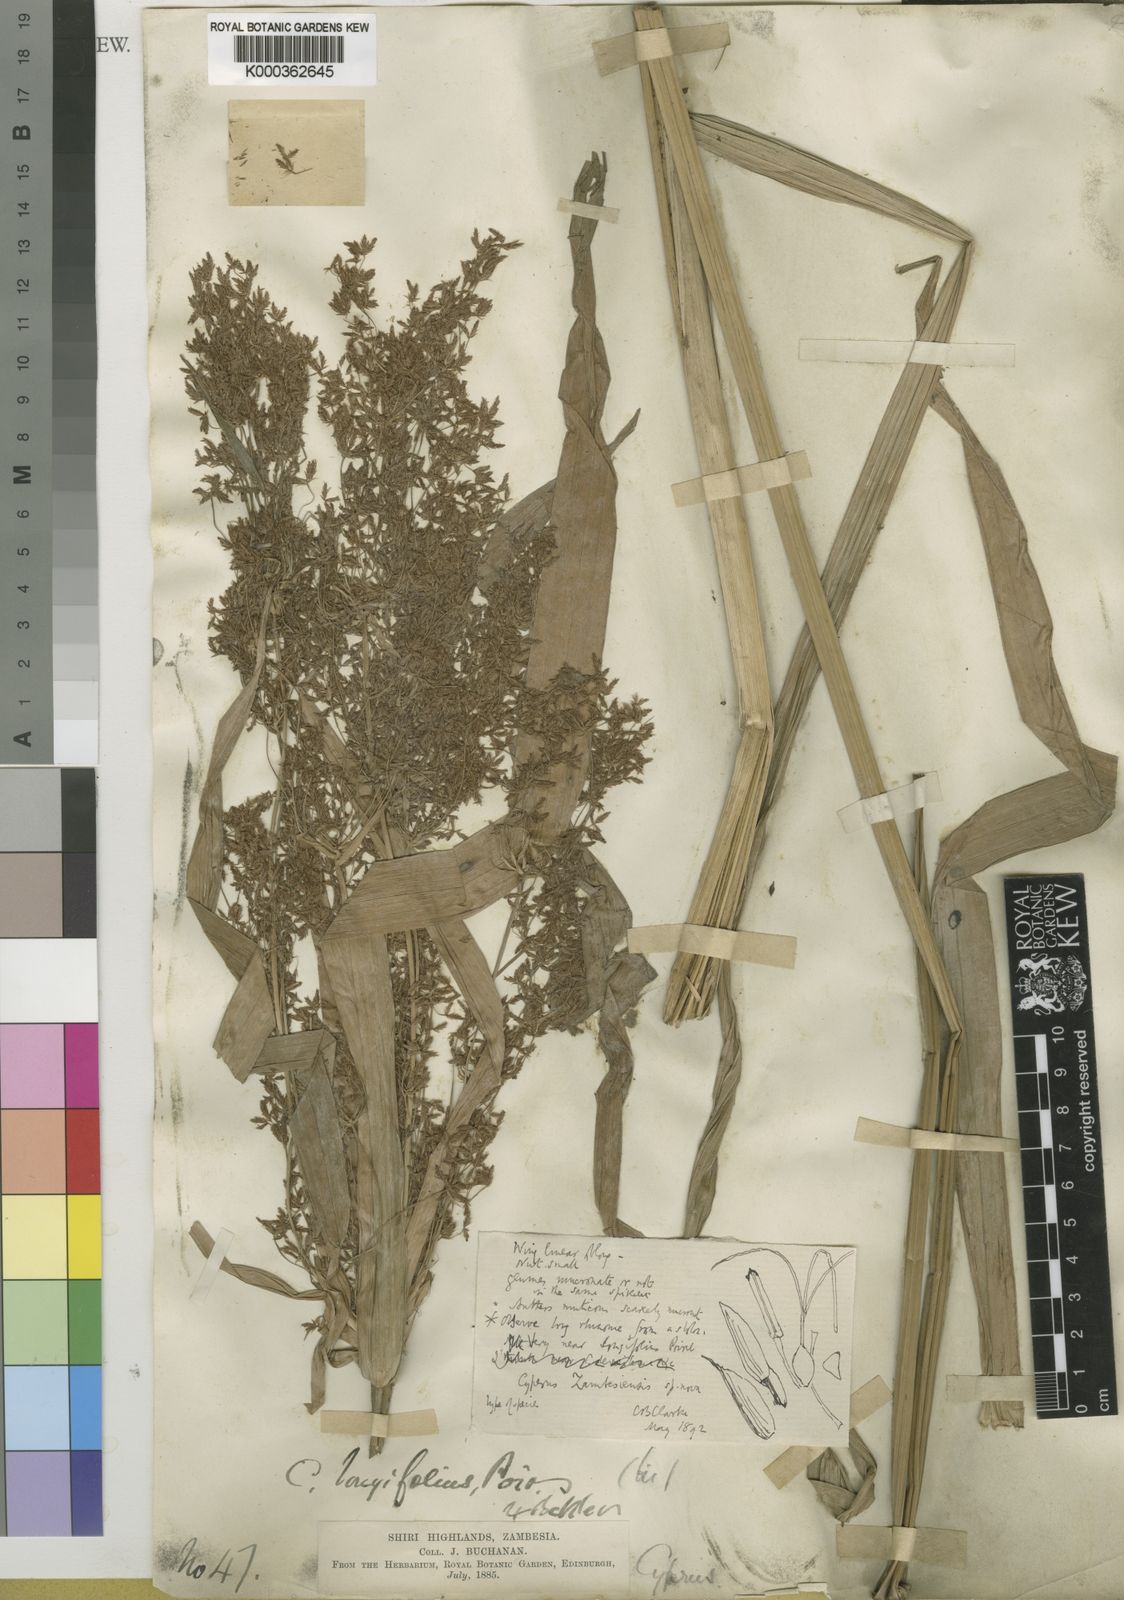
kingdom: Plantae
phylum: Tracheophyta
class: Liliopsida
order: Poales
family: Cyperaceae
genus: Cyperus
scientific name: Cyperus
